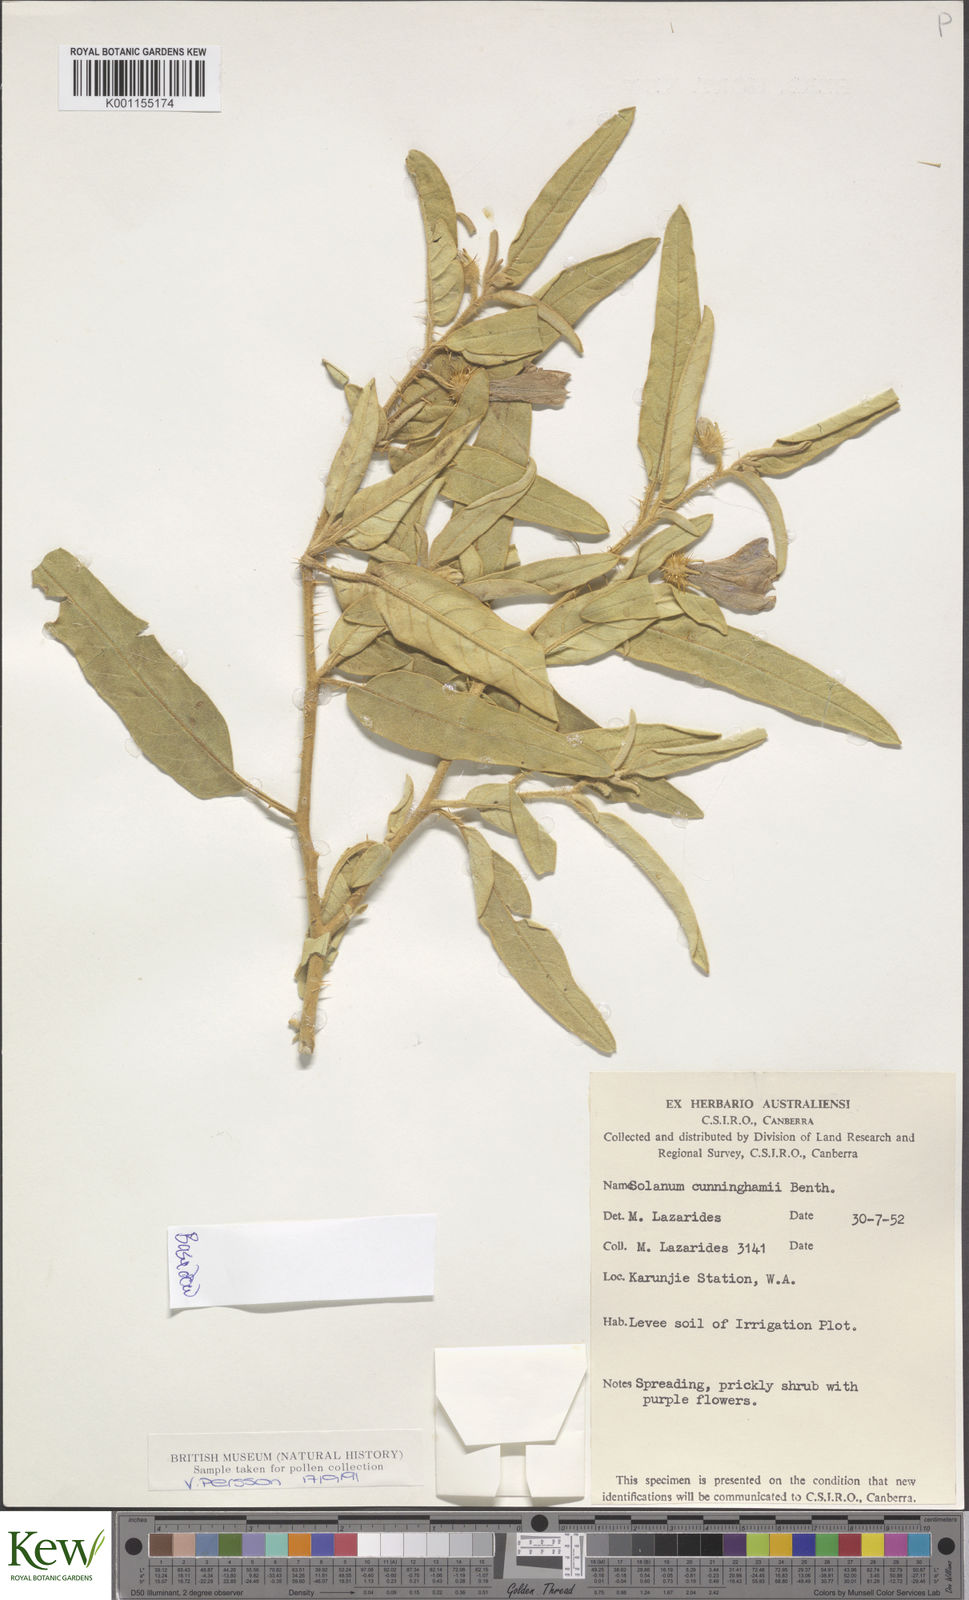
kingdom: Plantae
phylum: Tracheophyta
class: Magnoliopsida
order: Solanales
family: Solanaceae
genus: Solanum
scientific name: Solanum cunninghamii
